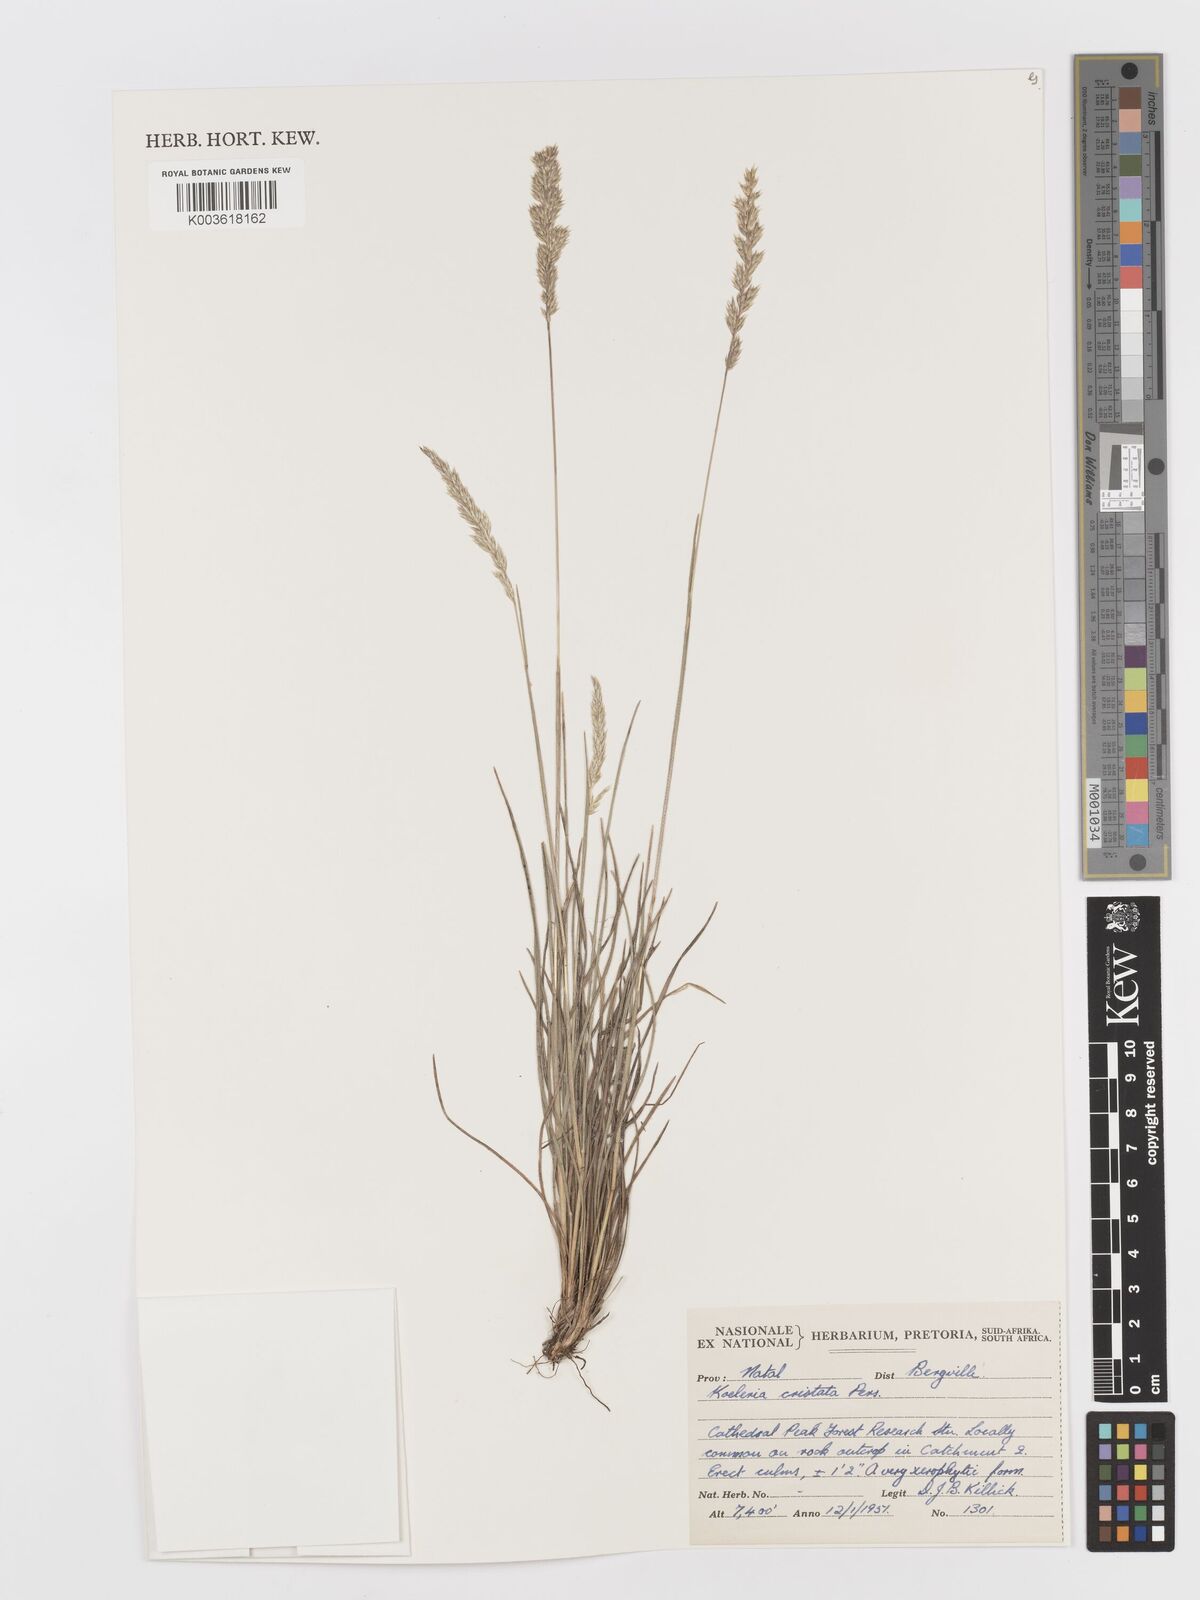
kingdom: Plantae
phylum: Tracheophyta
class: Liliopsida
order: Poales
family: Poaceae
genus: Koeleria
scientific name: Koeleria capensis
